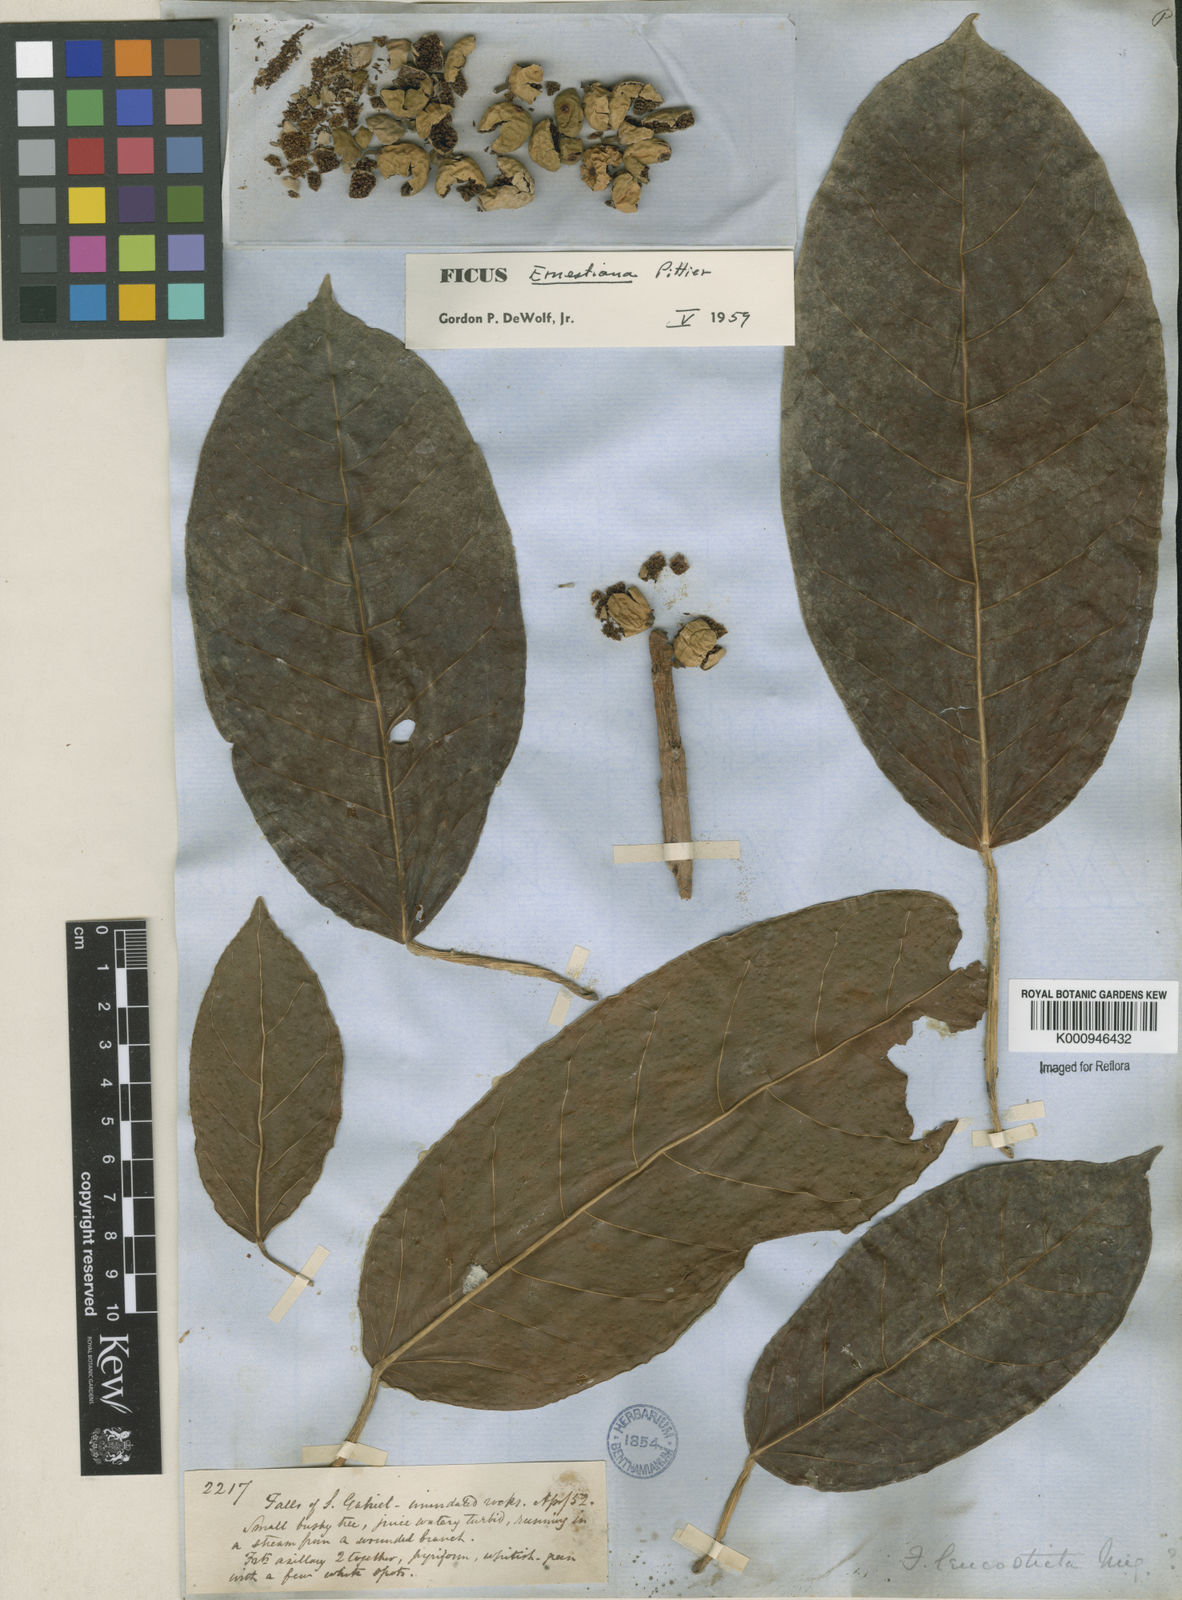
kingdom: Plantae
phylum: Tracheophyta
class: Magnoliopsida
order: Rosales
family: Moraceae
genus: Ficus
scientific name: Ficus
